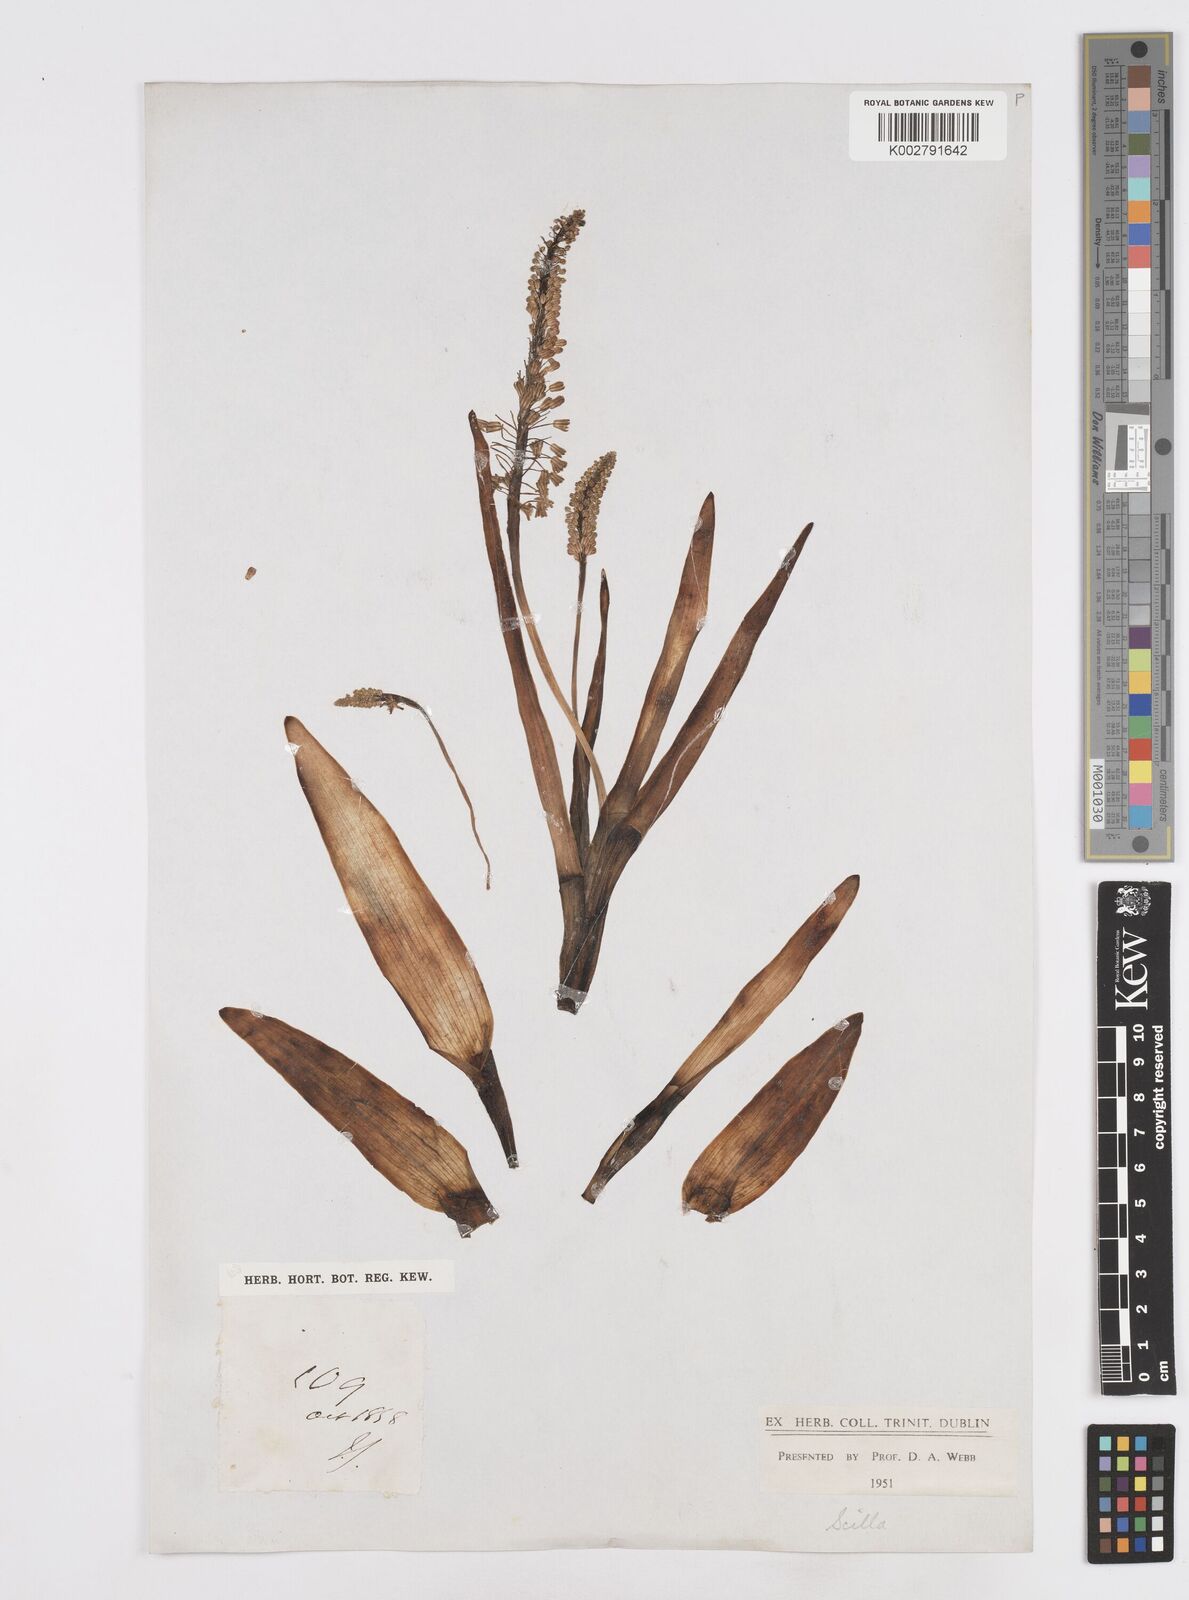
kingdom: Plantae
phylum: Tracheophyta
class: Liliopsida
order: Asparagales
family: Asparagaceae
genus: Scilla
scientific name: Scilla
